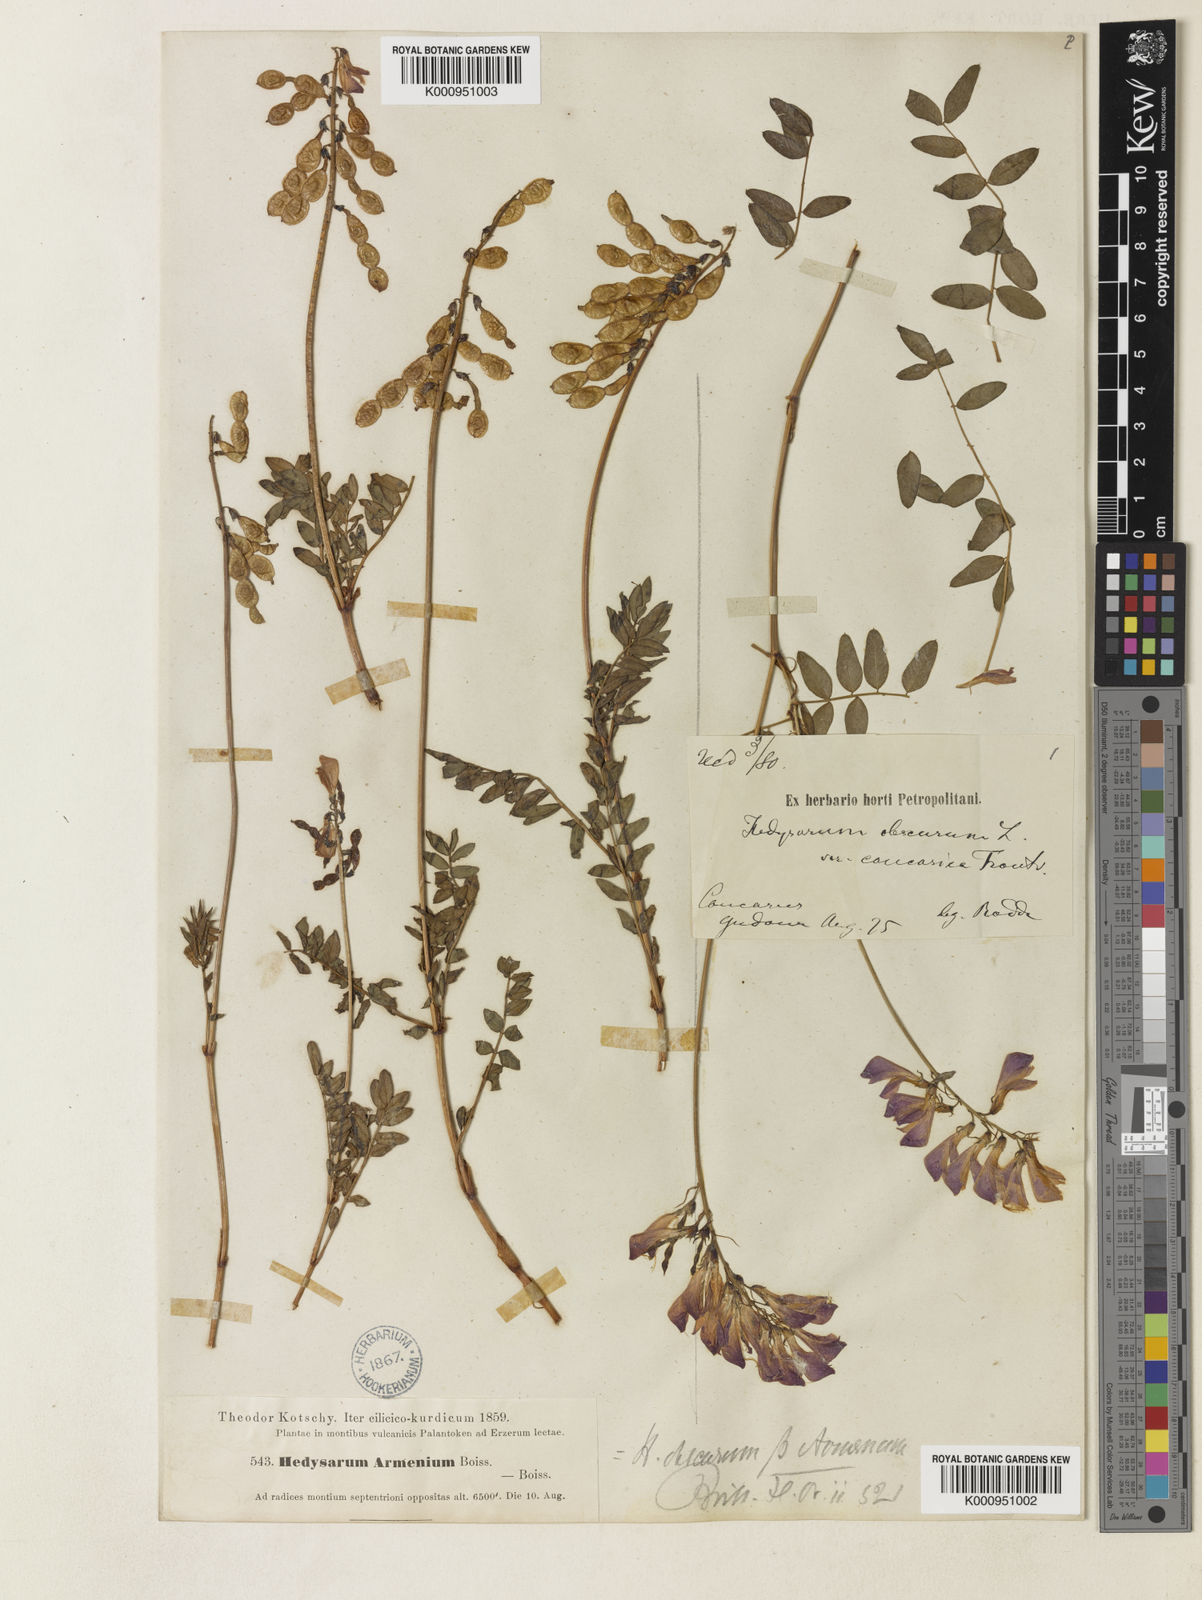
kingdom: Plantae
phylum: Tracheophyta
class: Magnoliopsida
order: Fabales
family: Fabaceae
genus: Hedysarum
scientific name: Hedysarum hedysaroides
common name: Alpine french-honeysuckle
